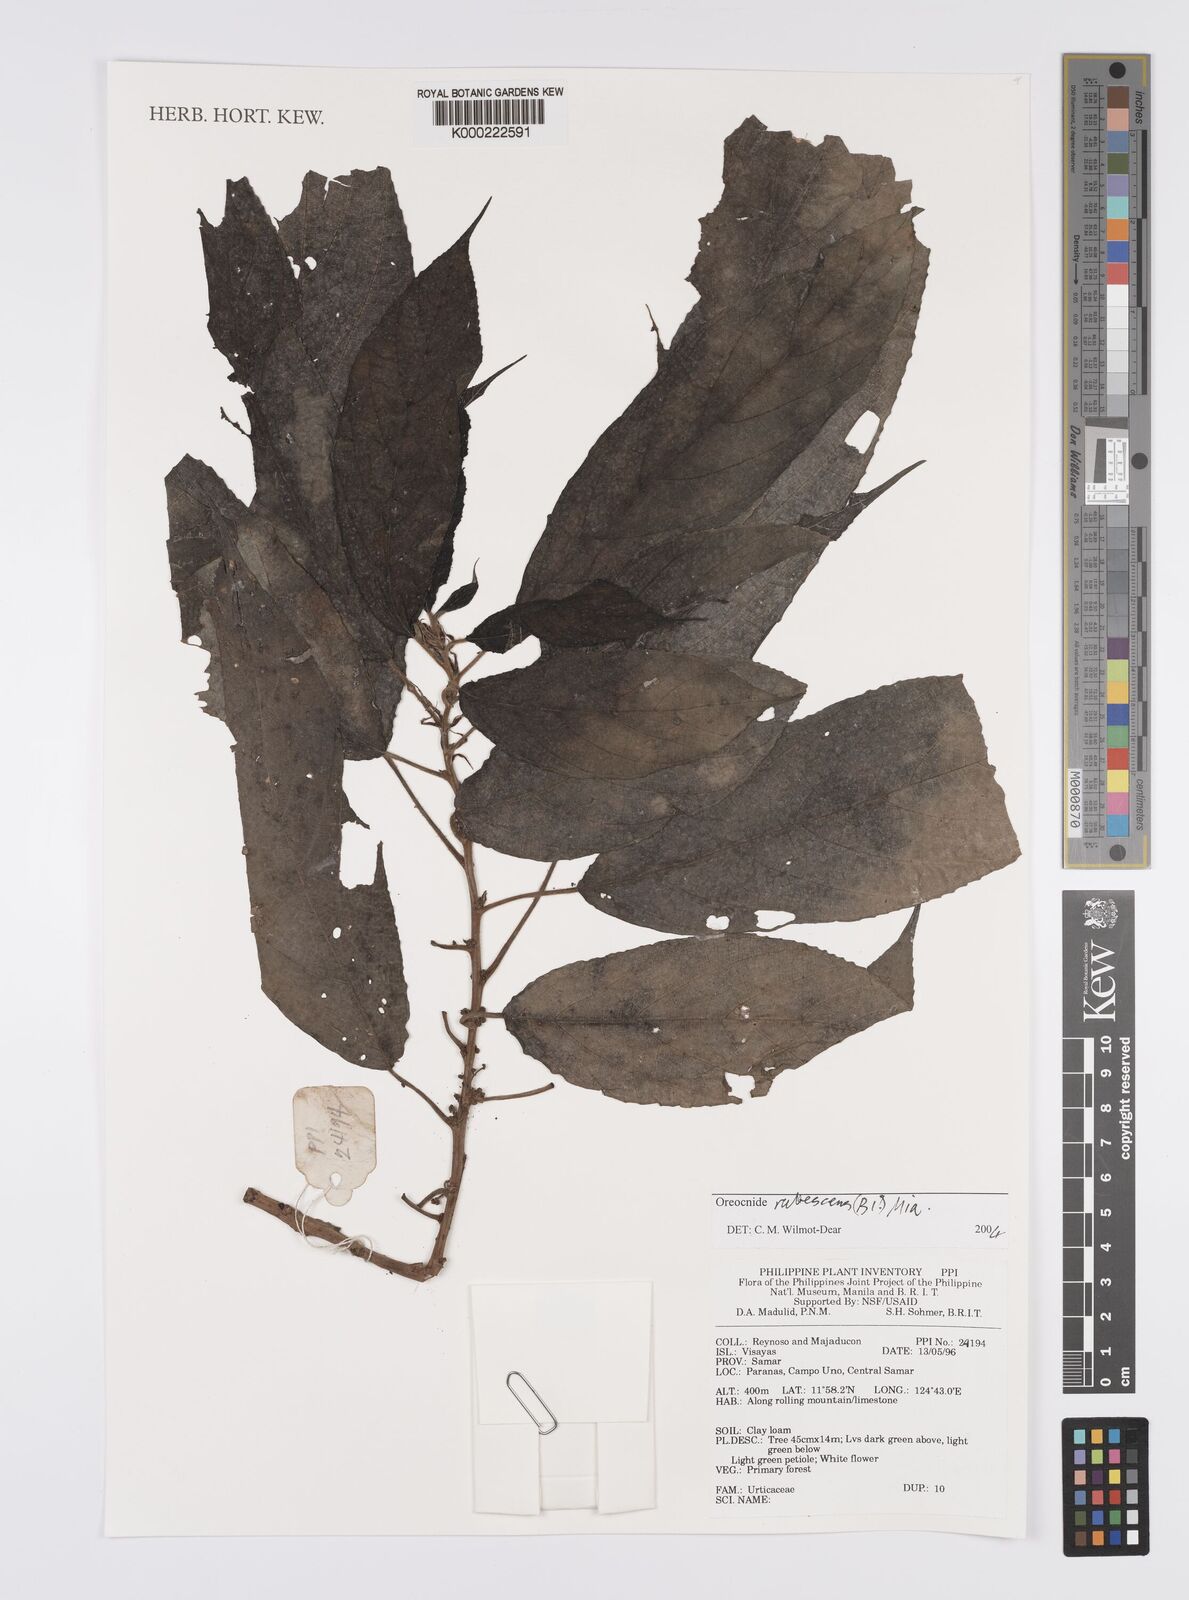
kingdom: Plantae
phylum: Tracheophyta
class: Magnoliopsida
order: Rosales
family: Urticaceae
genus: Oreocnide
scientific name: Oreocnide rubescens
